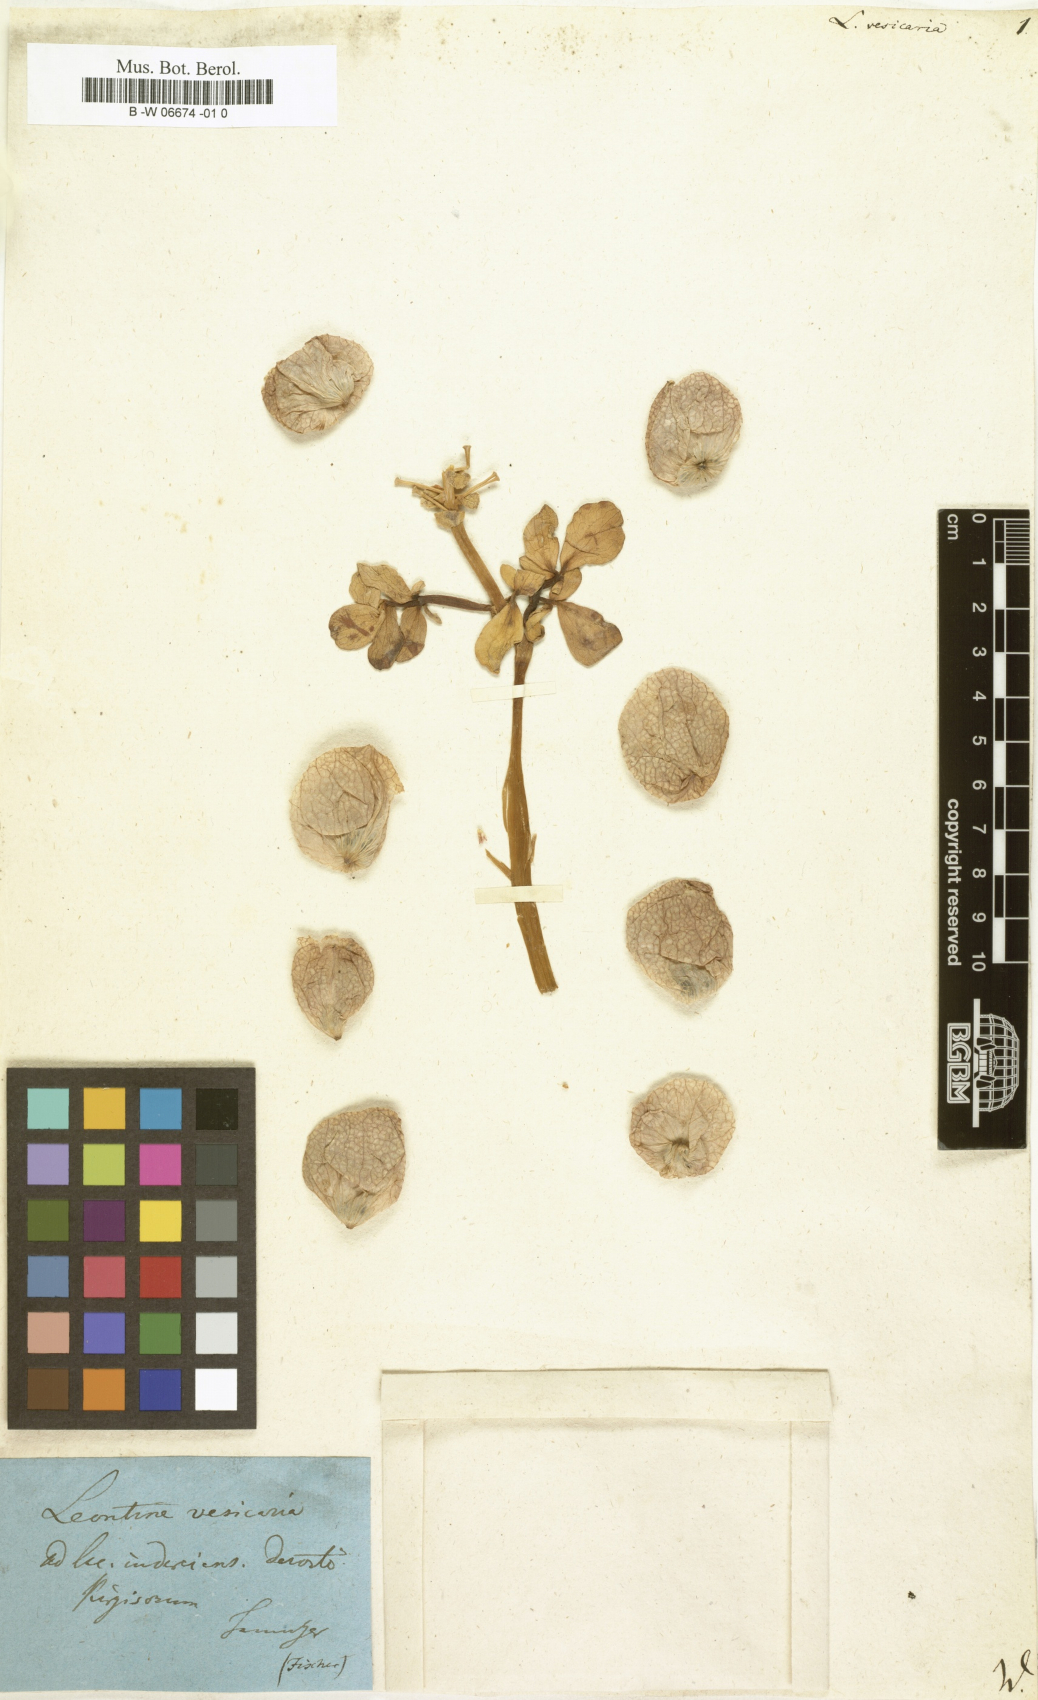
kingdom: Plantae
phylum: Tracheophyta
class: Magnoliopsida
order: Ranunculales
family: Berberidaceae
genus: Leontice
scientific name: Leontice incerta
